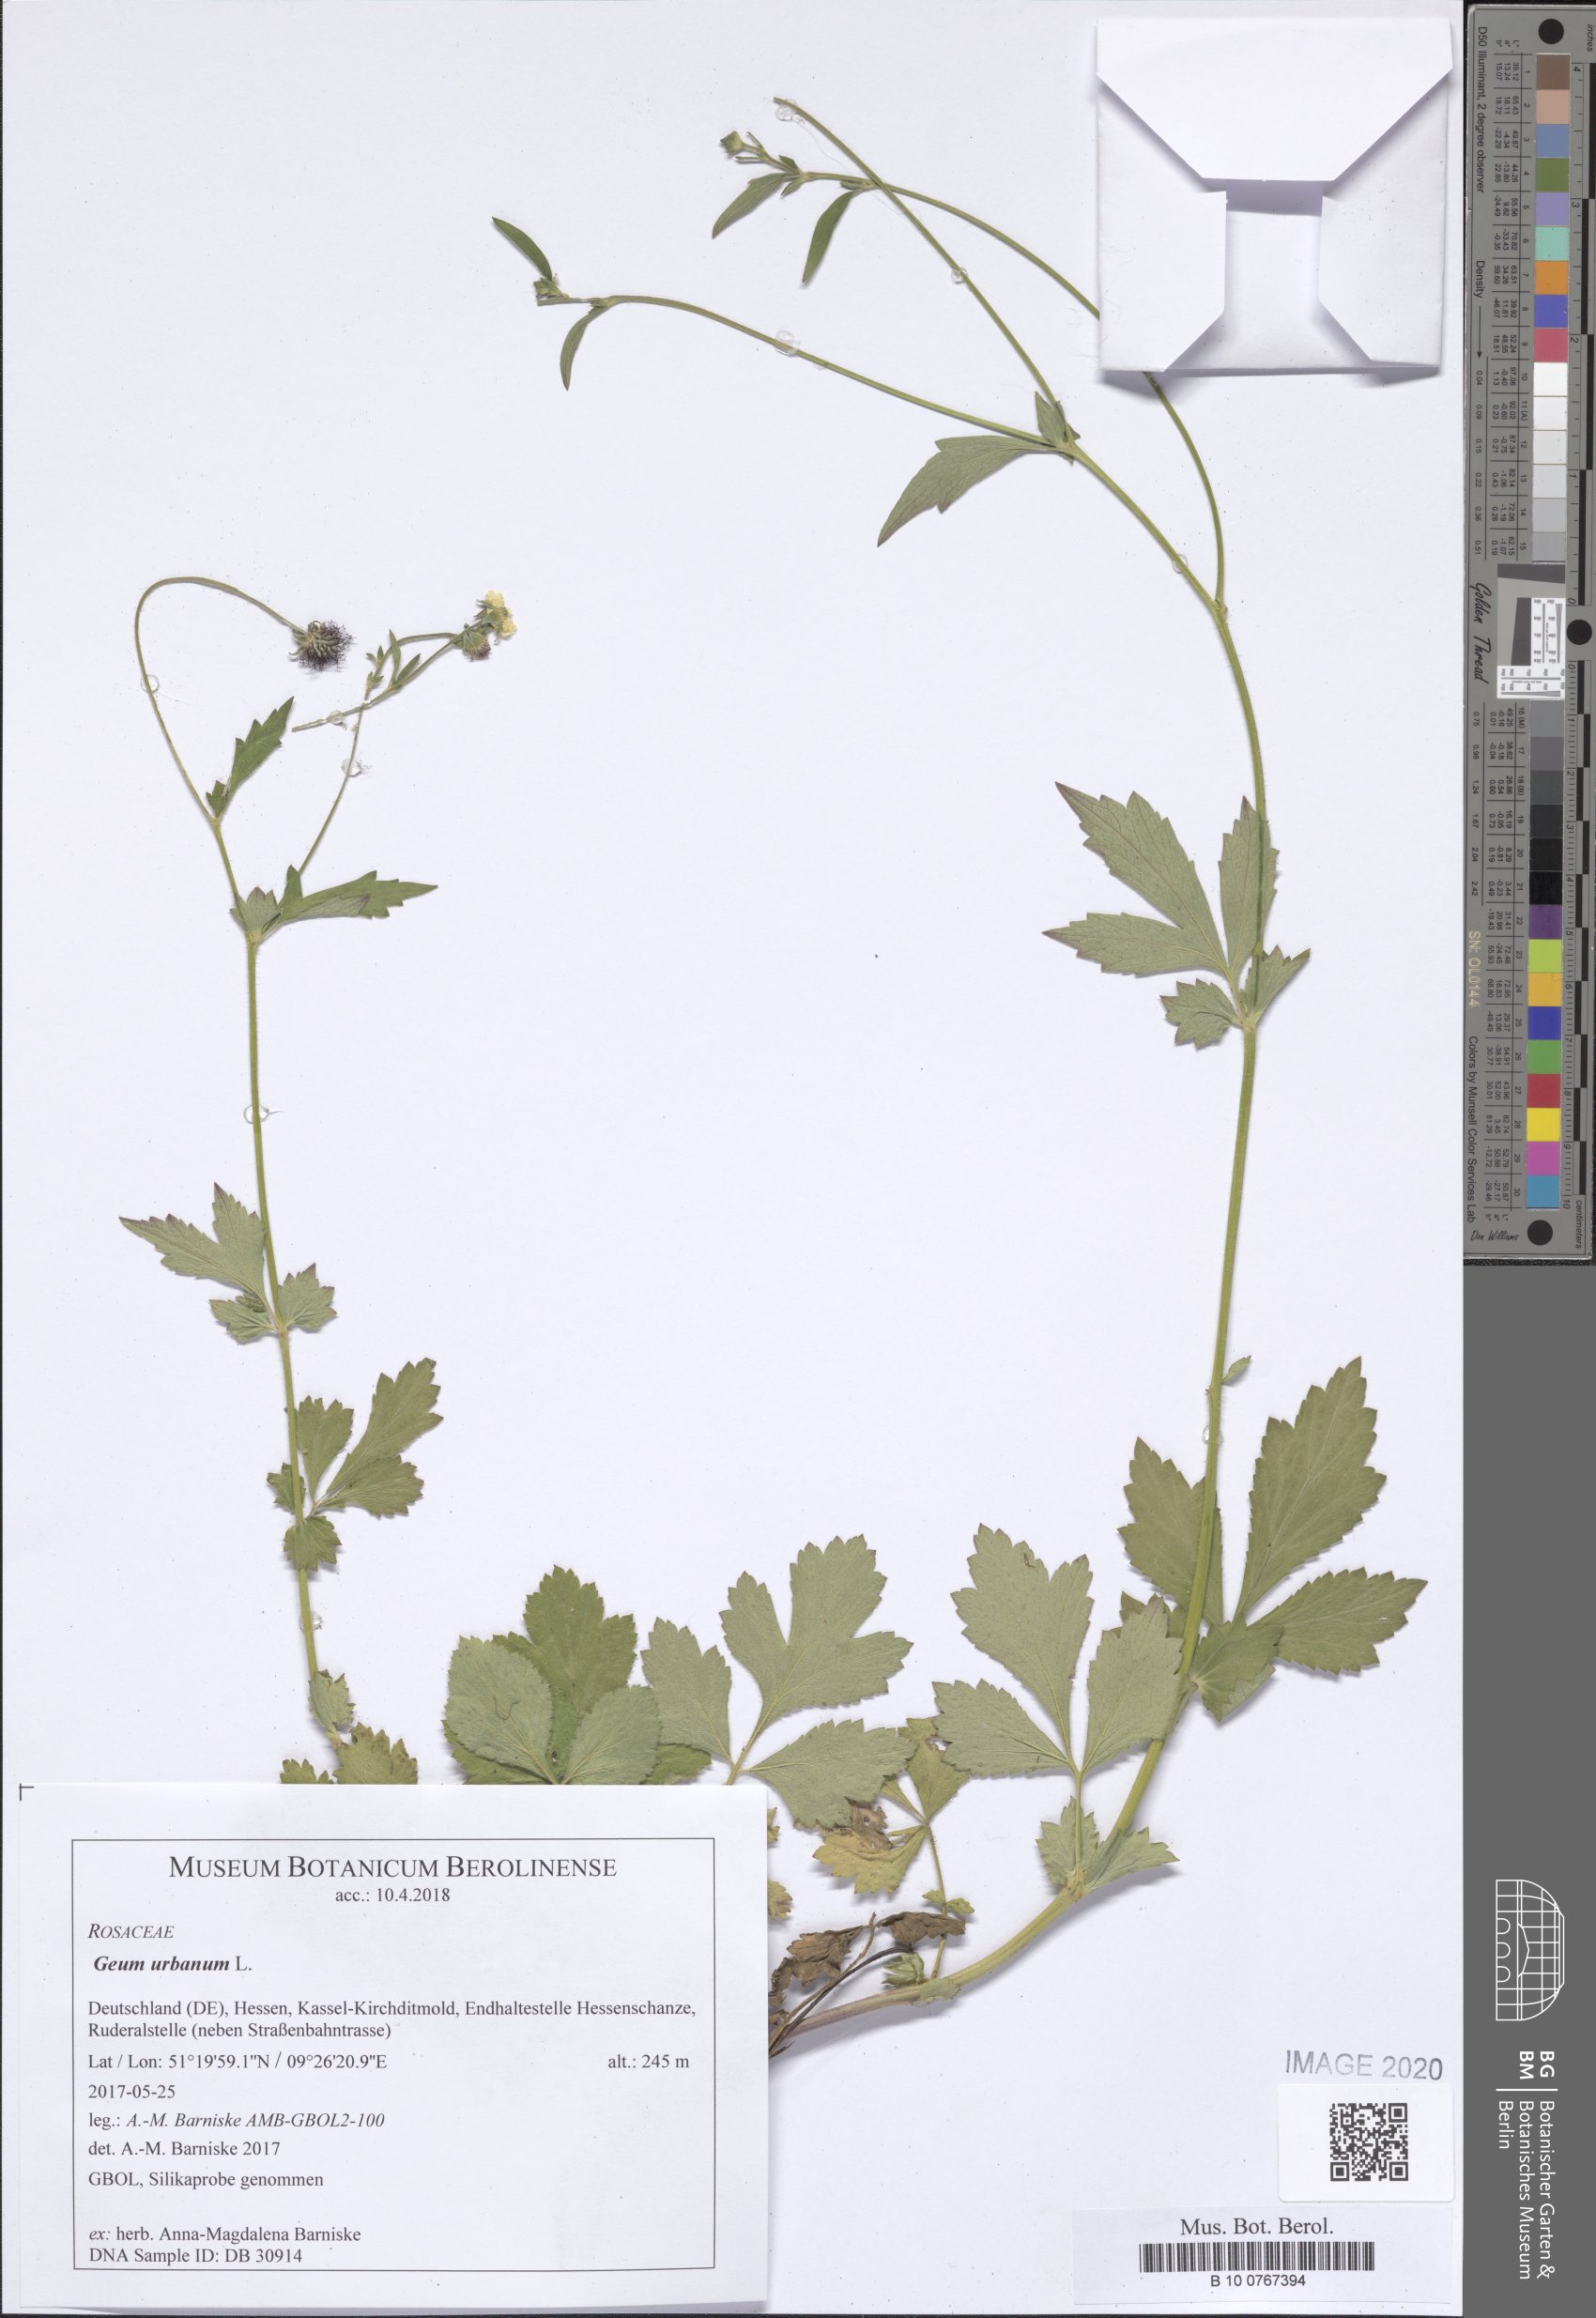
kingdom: Plantae
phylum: Tracheophyta
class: Magnoliopsida
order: Rosales
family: Rosaceae
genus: Geum
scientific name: Geum urbanum
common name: Wood avens
